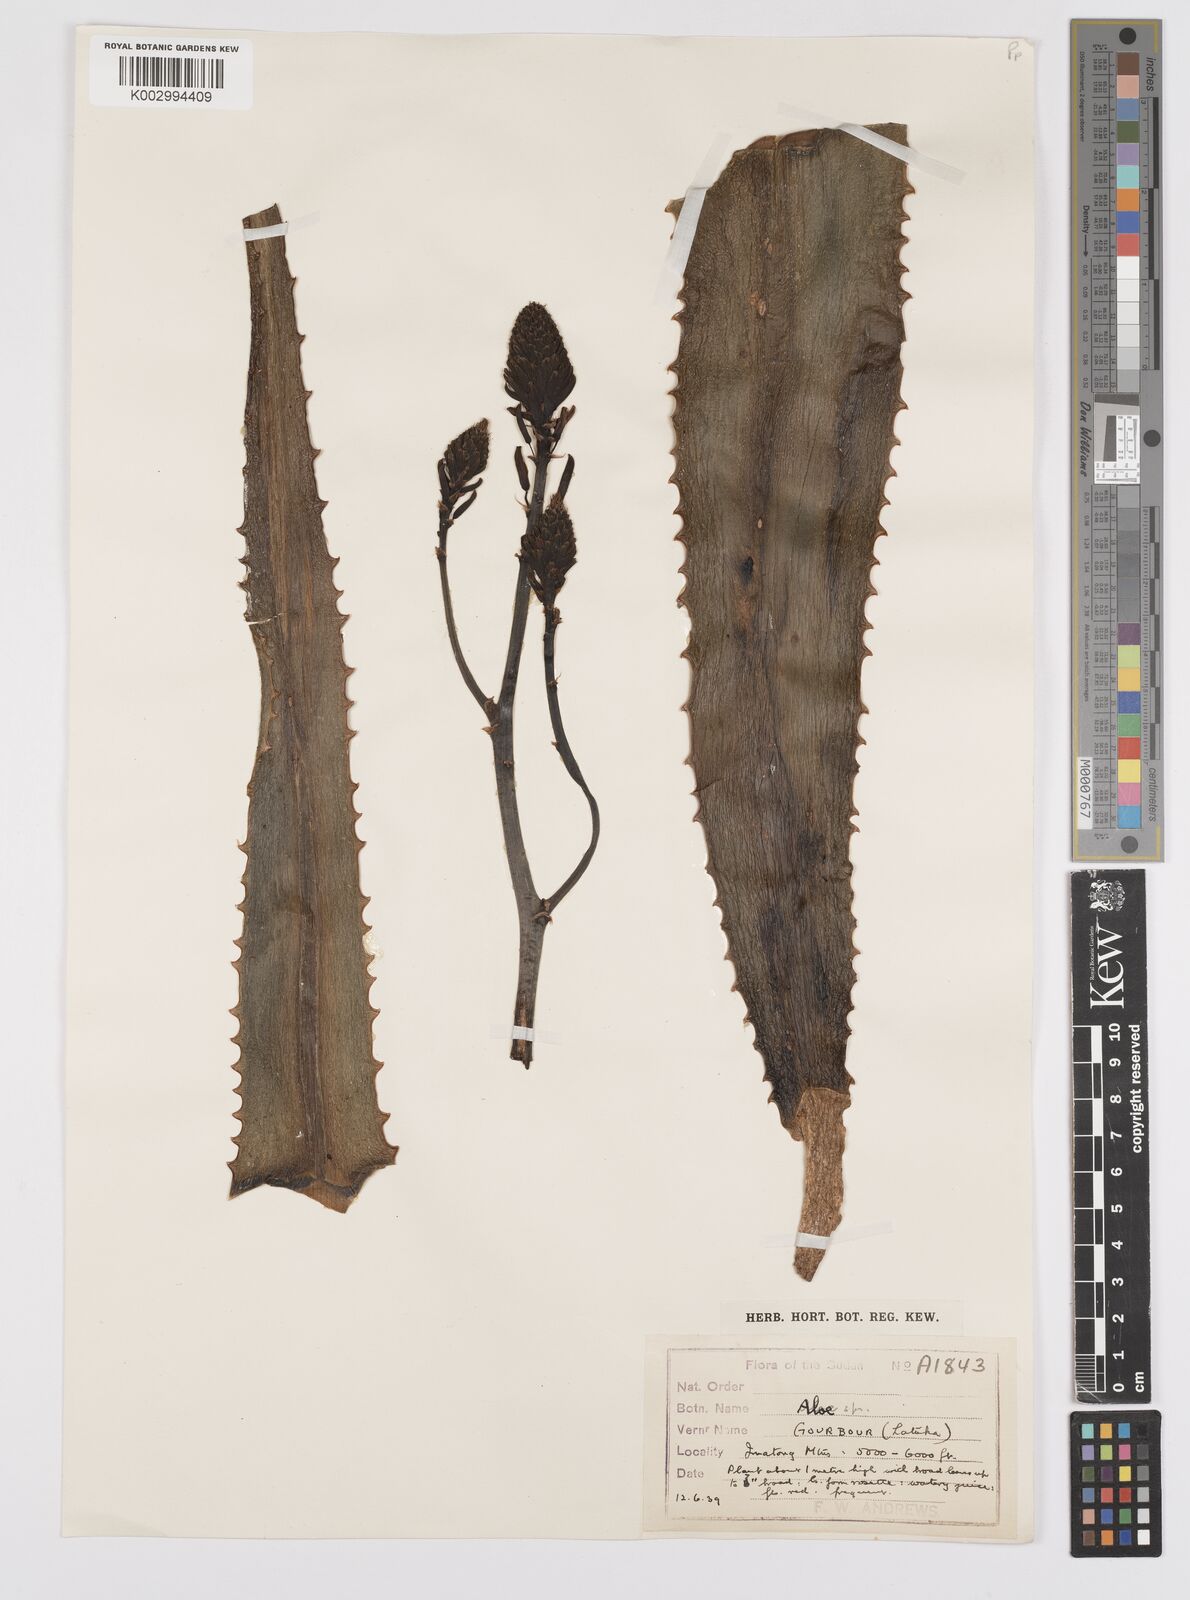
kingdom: Plantae
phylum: Tracheophyta
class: Liliopsida
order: Asparagales
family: Asphodelaceae
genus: Aloe
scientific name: Aloe
